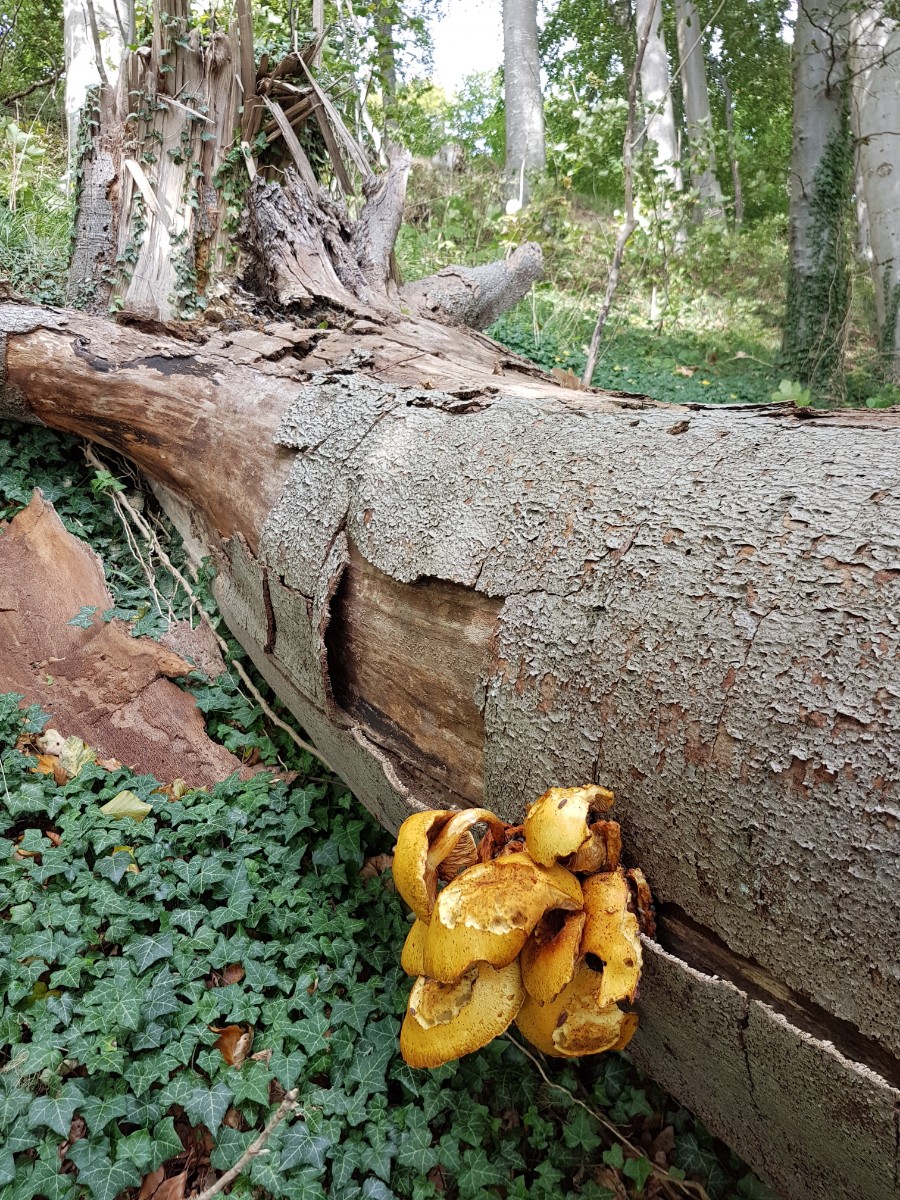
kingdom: Fungi
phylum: Basidiomycota
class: Agaricomycetes
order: Agaricales
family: Strophariaceae
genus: Pholiota
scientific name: Pholiota adiposa
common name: højtsiddende skælhat
